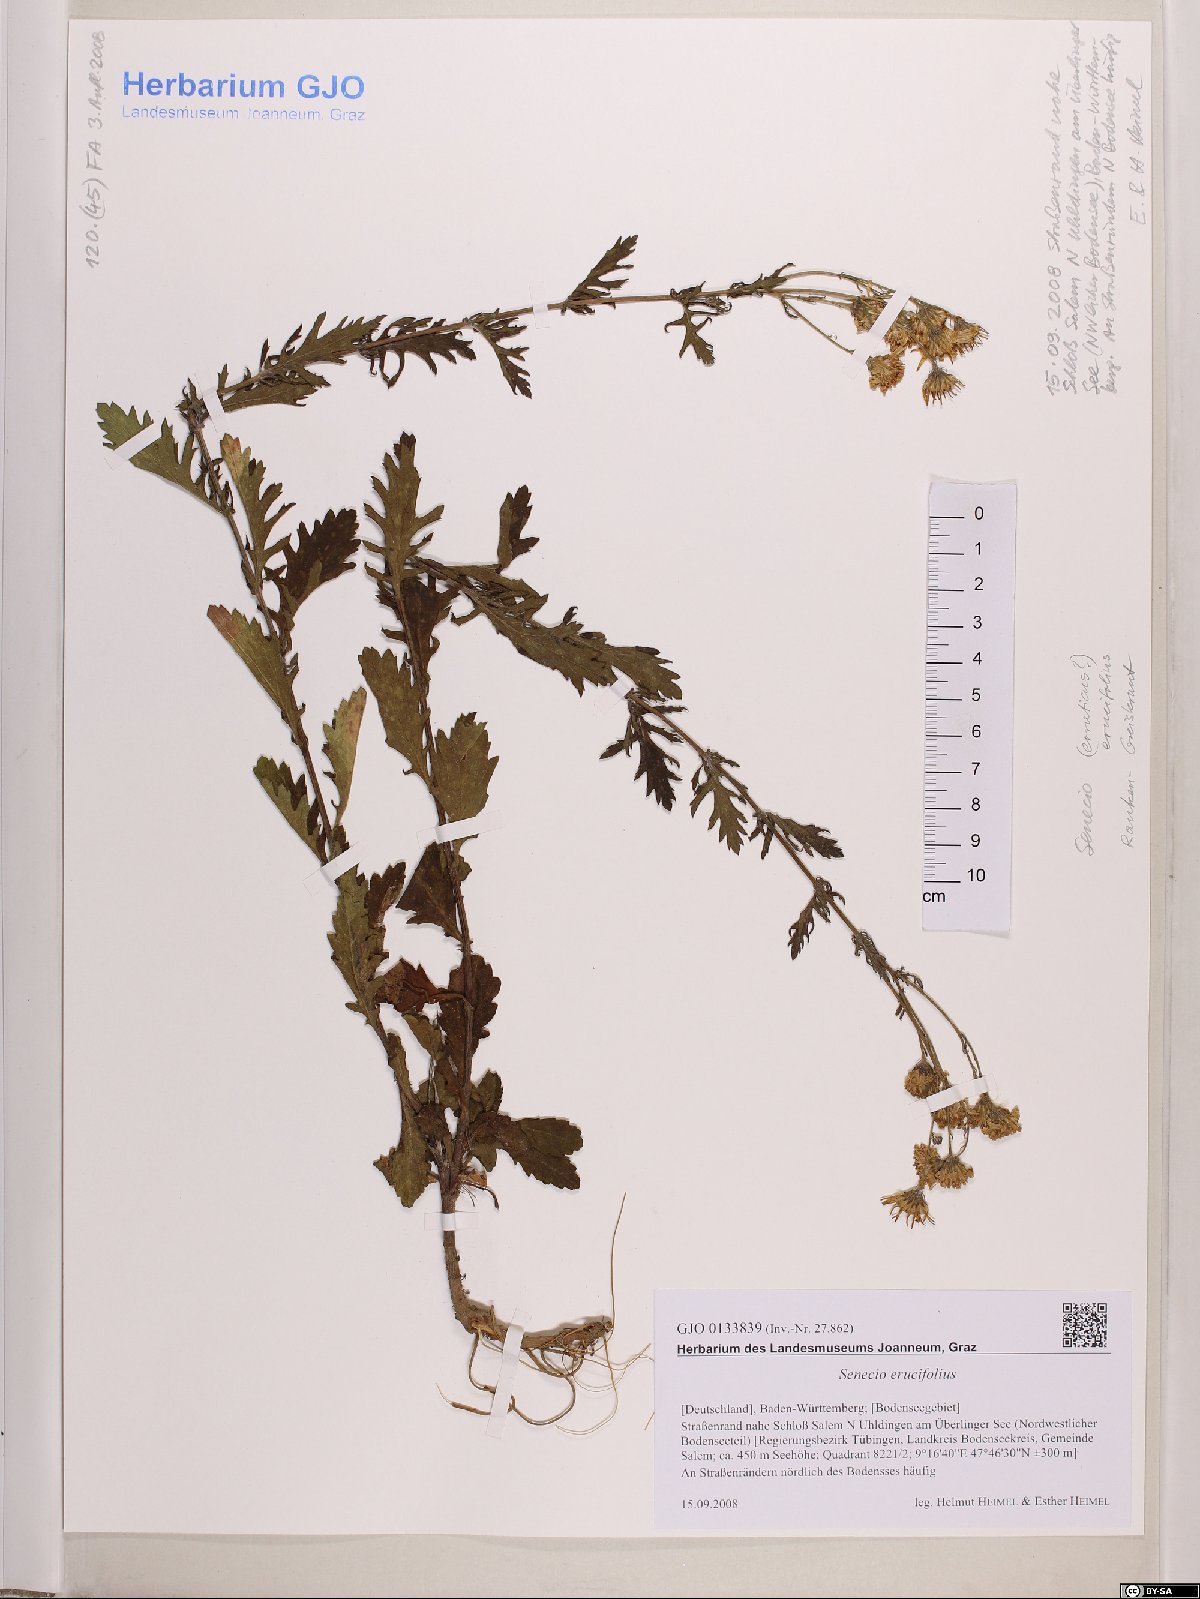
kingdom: Plantae
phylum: Tracheophyta
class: Magnoliopsida
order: Asterales
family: Asteraceae
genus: Jacobaea
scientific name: Jacobaea erucifolia
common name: Hoary ragwort
